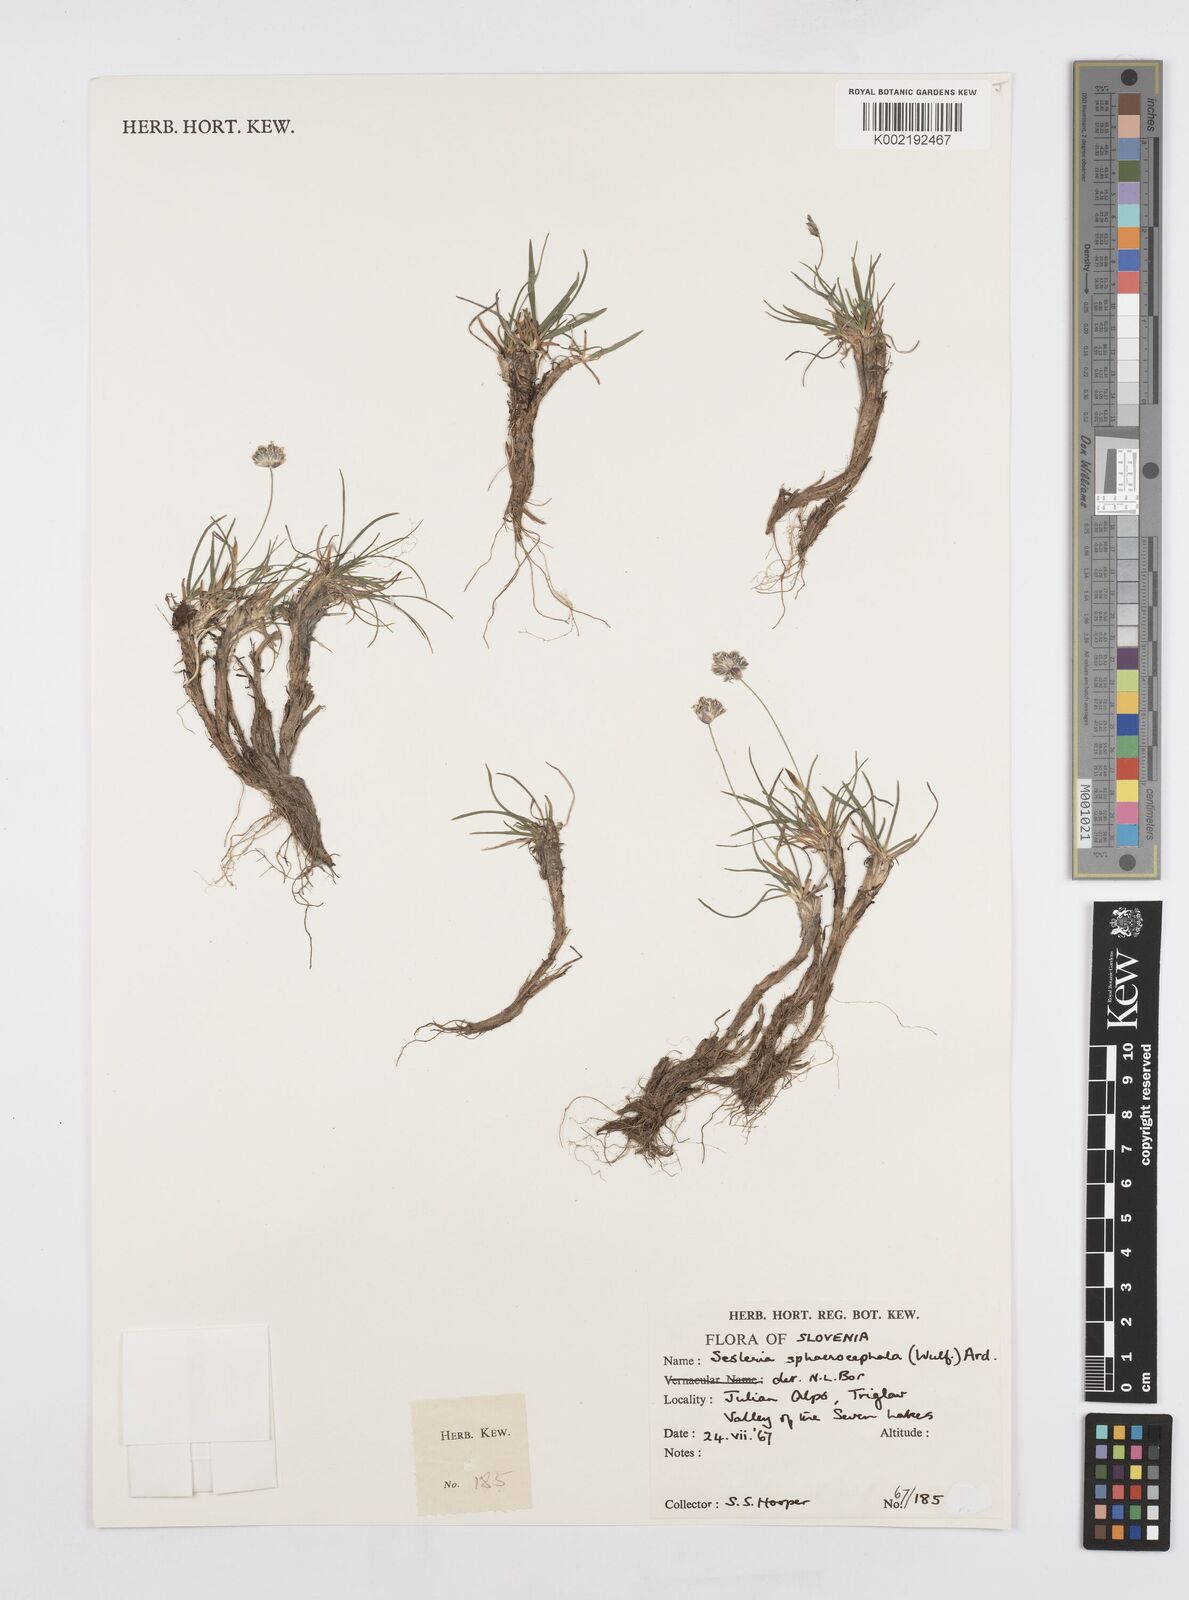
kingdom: Plantae
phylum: Tracheophyta
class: Liliopsida
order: Poales
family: Poaceae
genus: Sesleriella
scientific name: Sesleriella sphaerocephala
